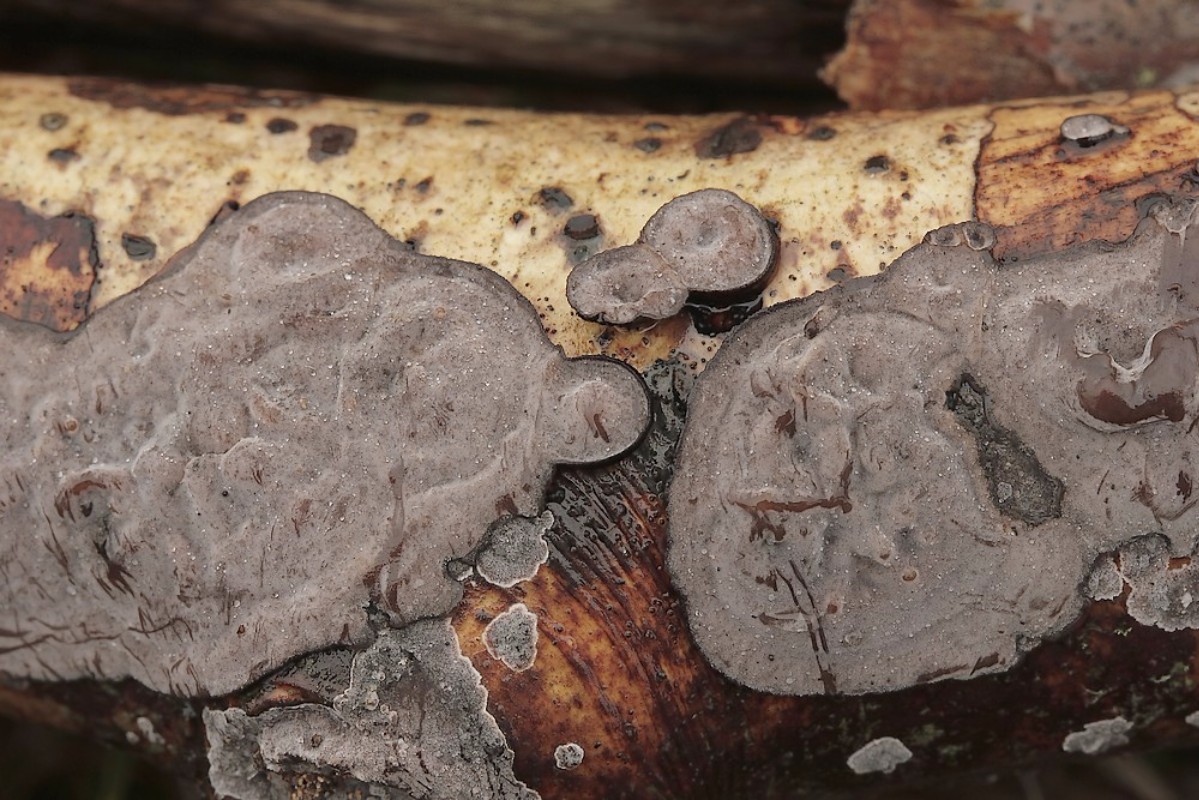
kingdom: Fungi
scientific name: Fungi
